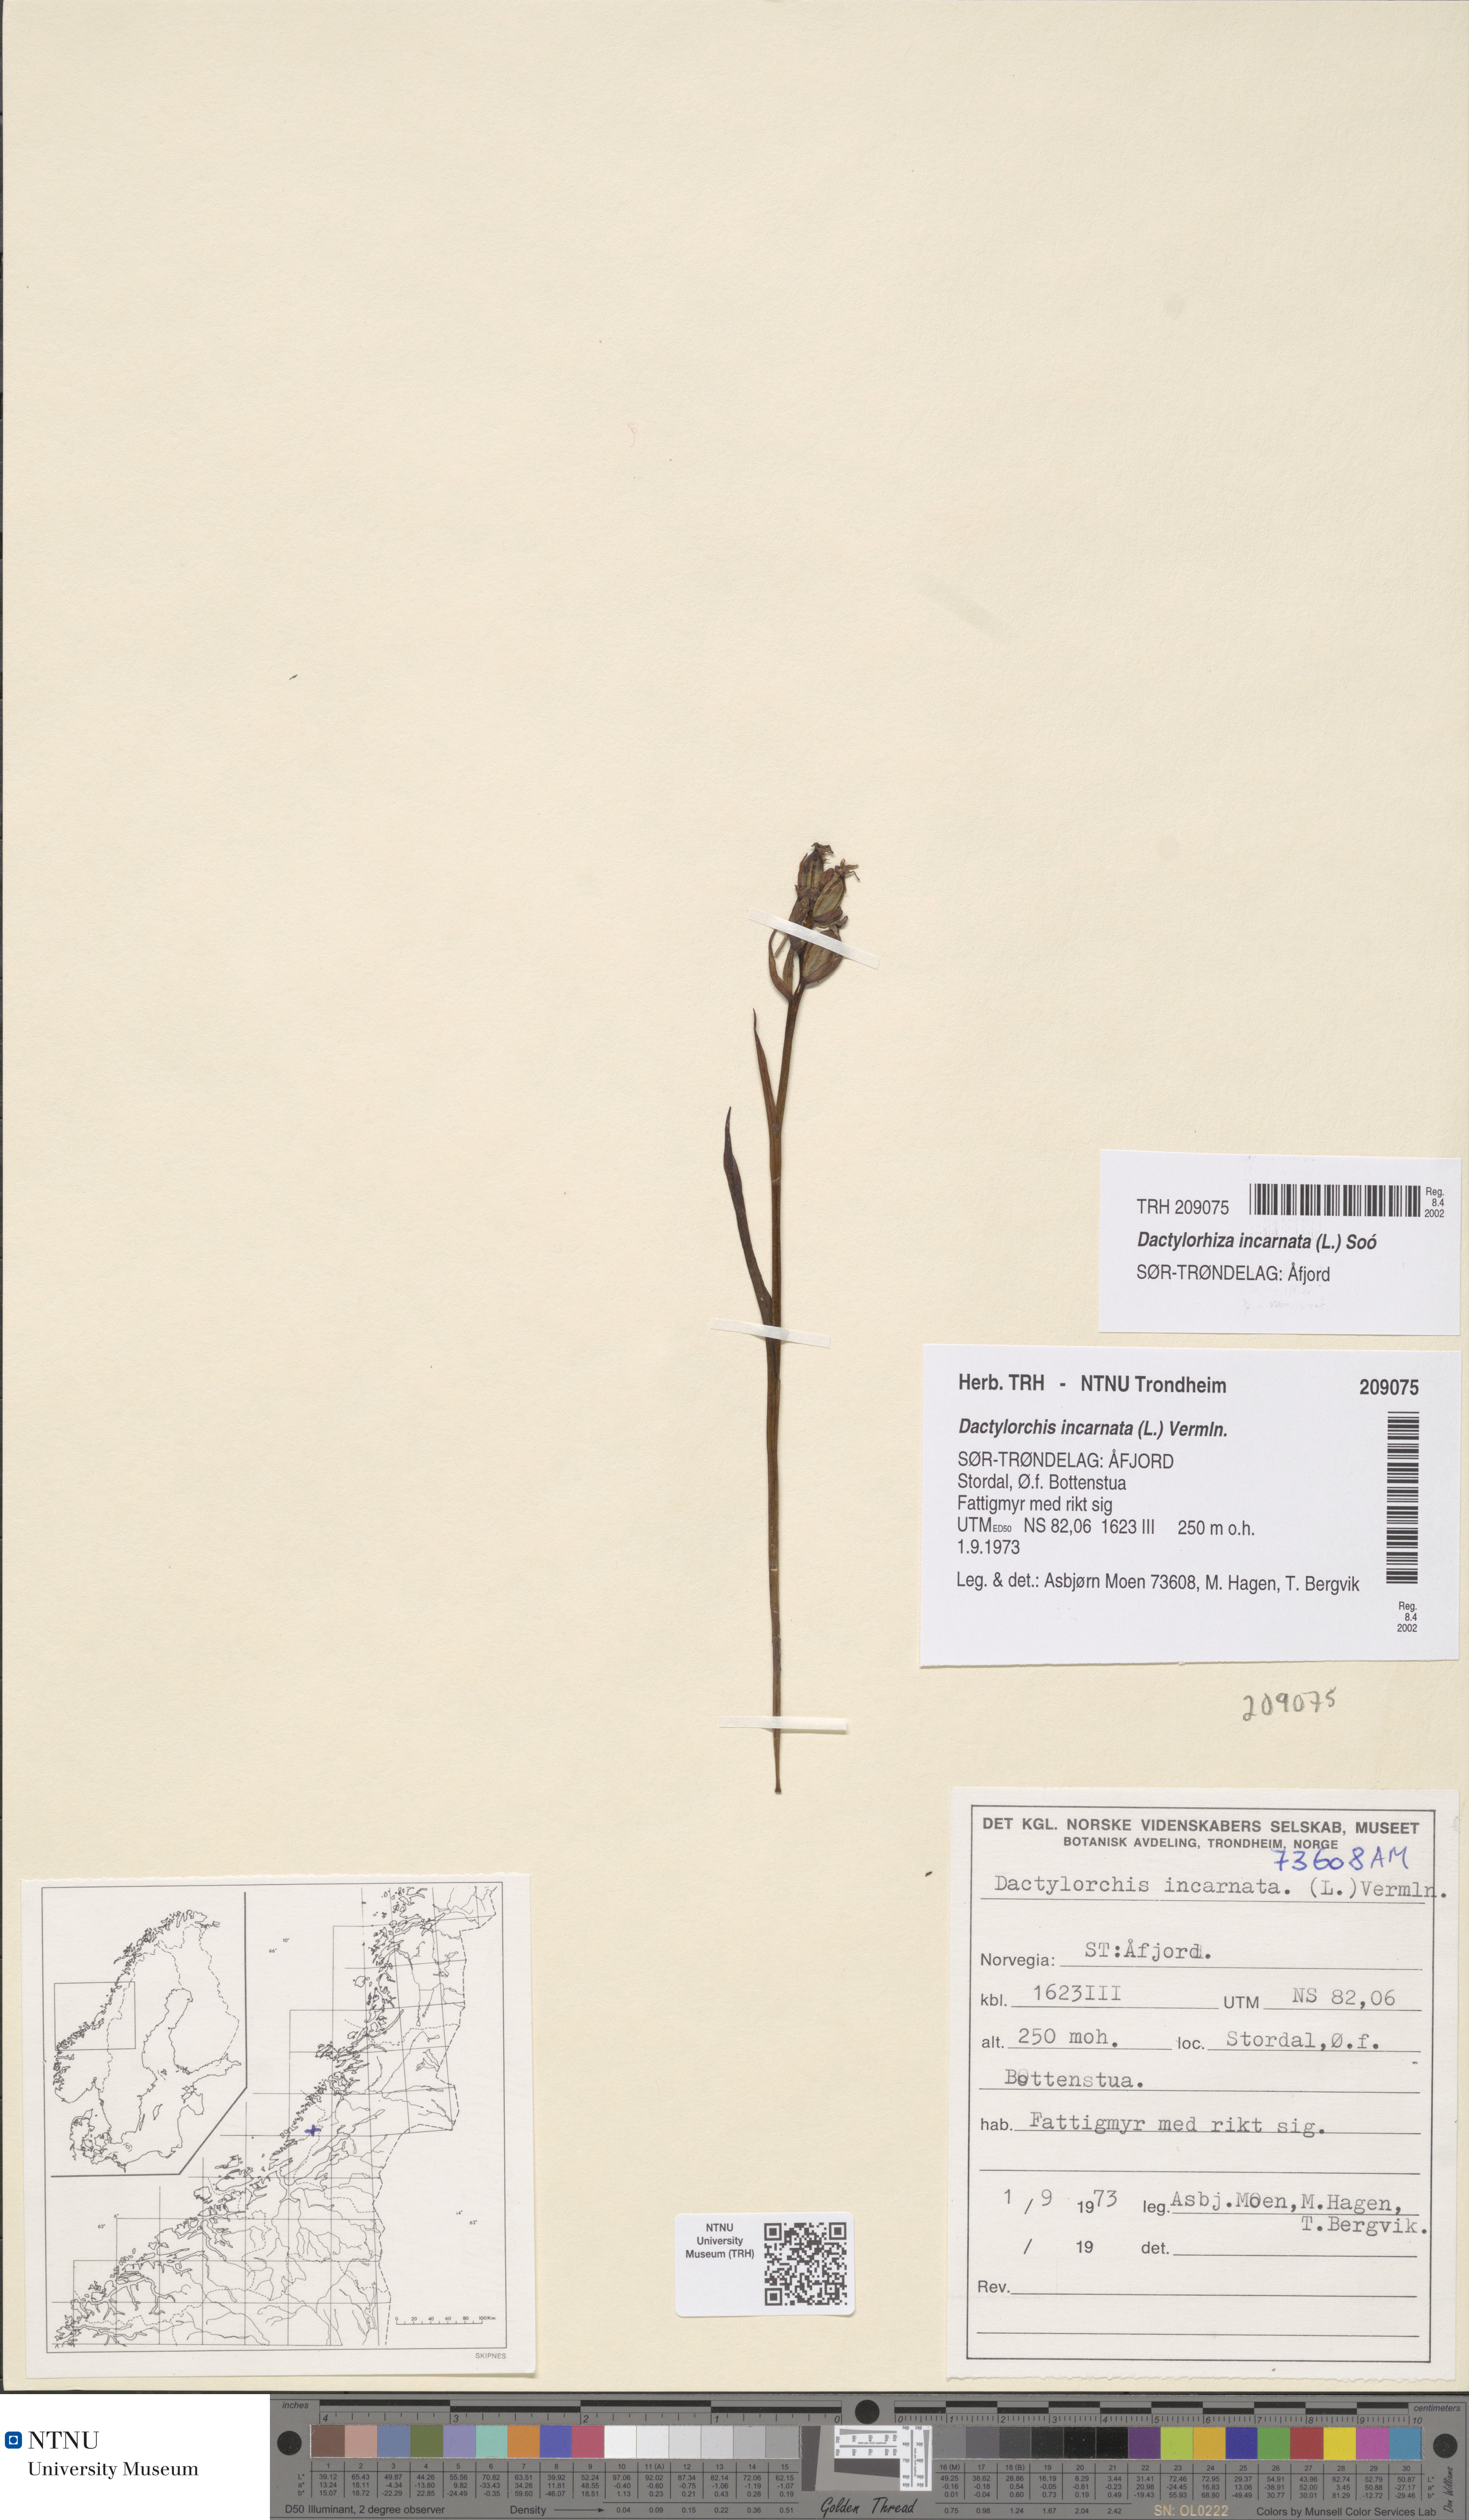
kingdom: Plantae
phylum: Tracheophyta
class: Liliopsida
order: Asparagales
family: Orchidaceae
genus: Dactylorhiza
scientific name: Dactylorhiza incarnata
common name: Early marsh-orchid
